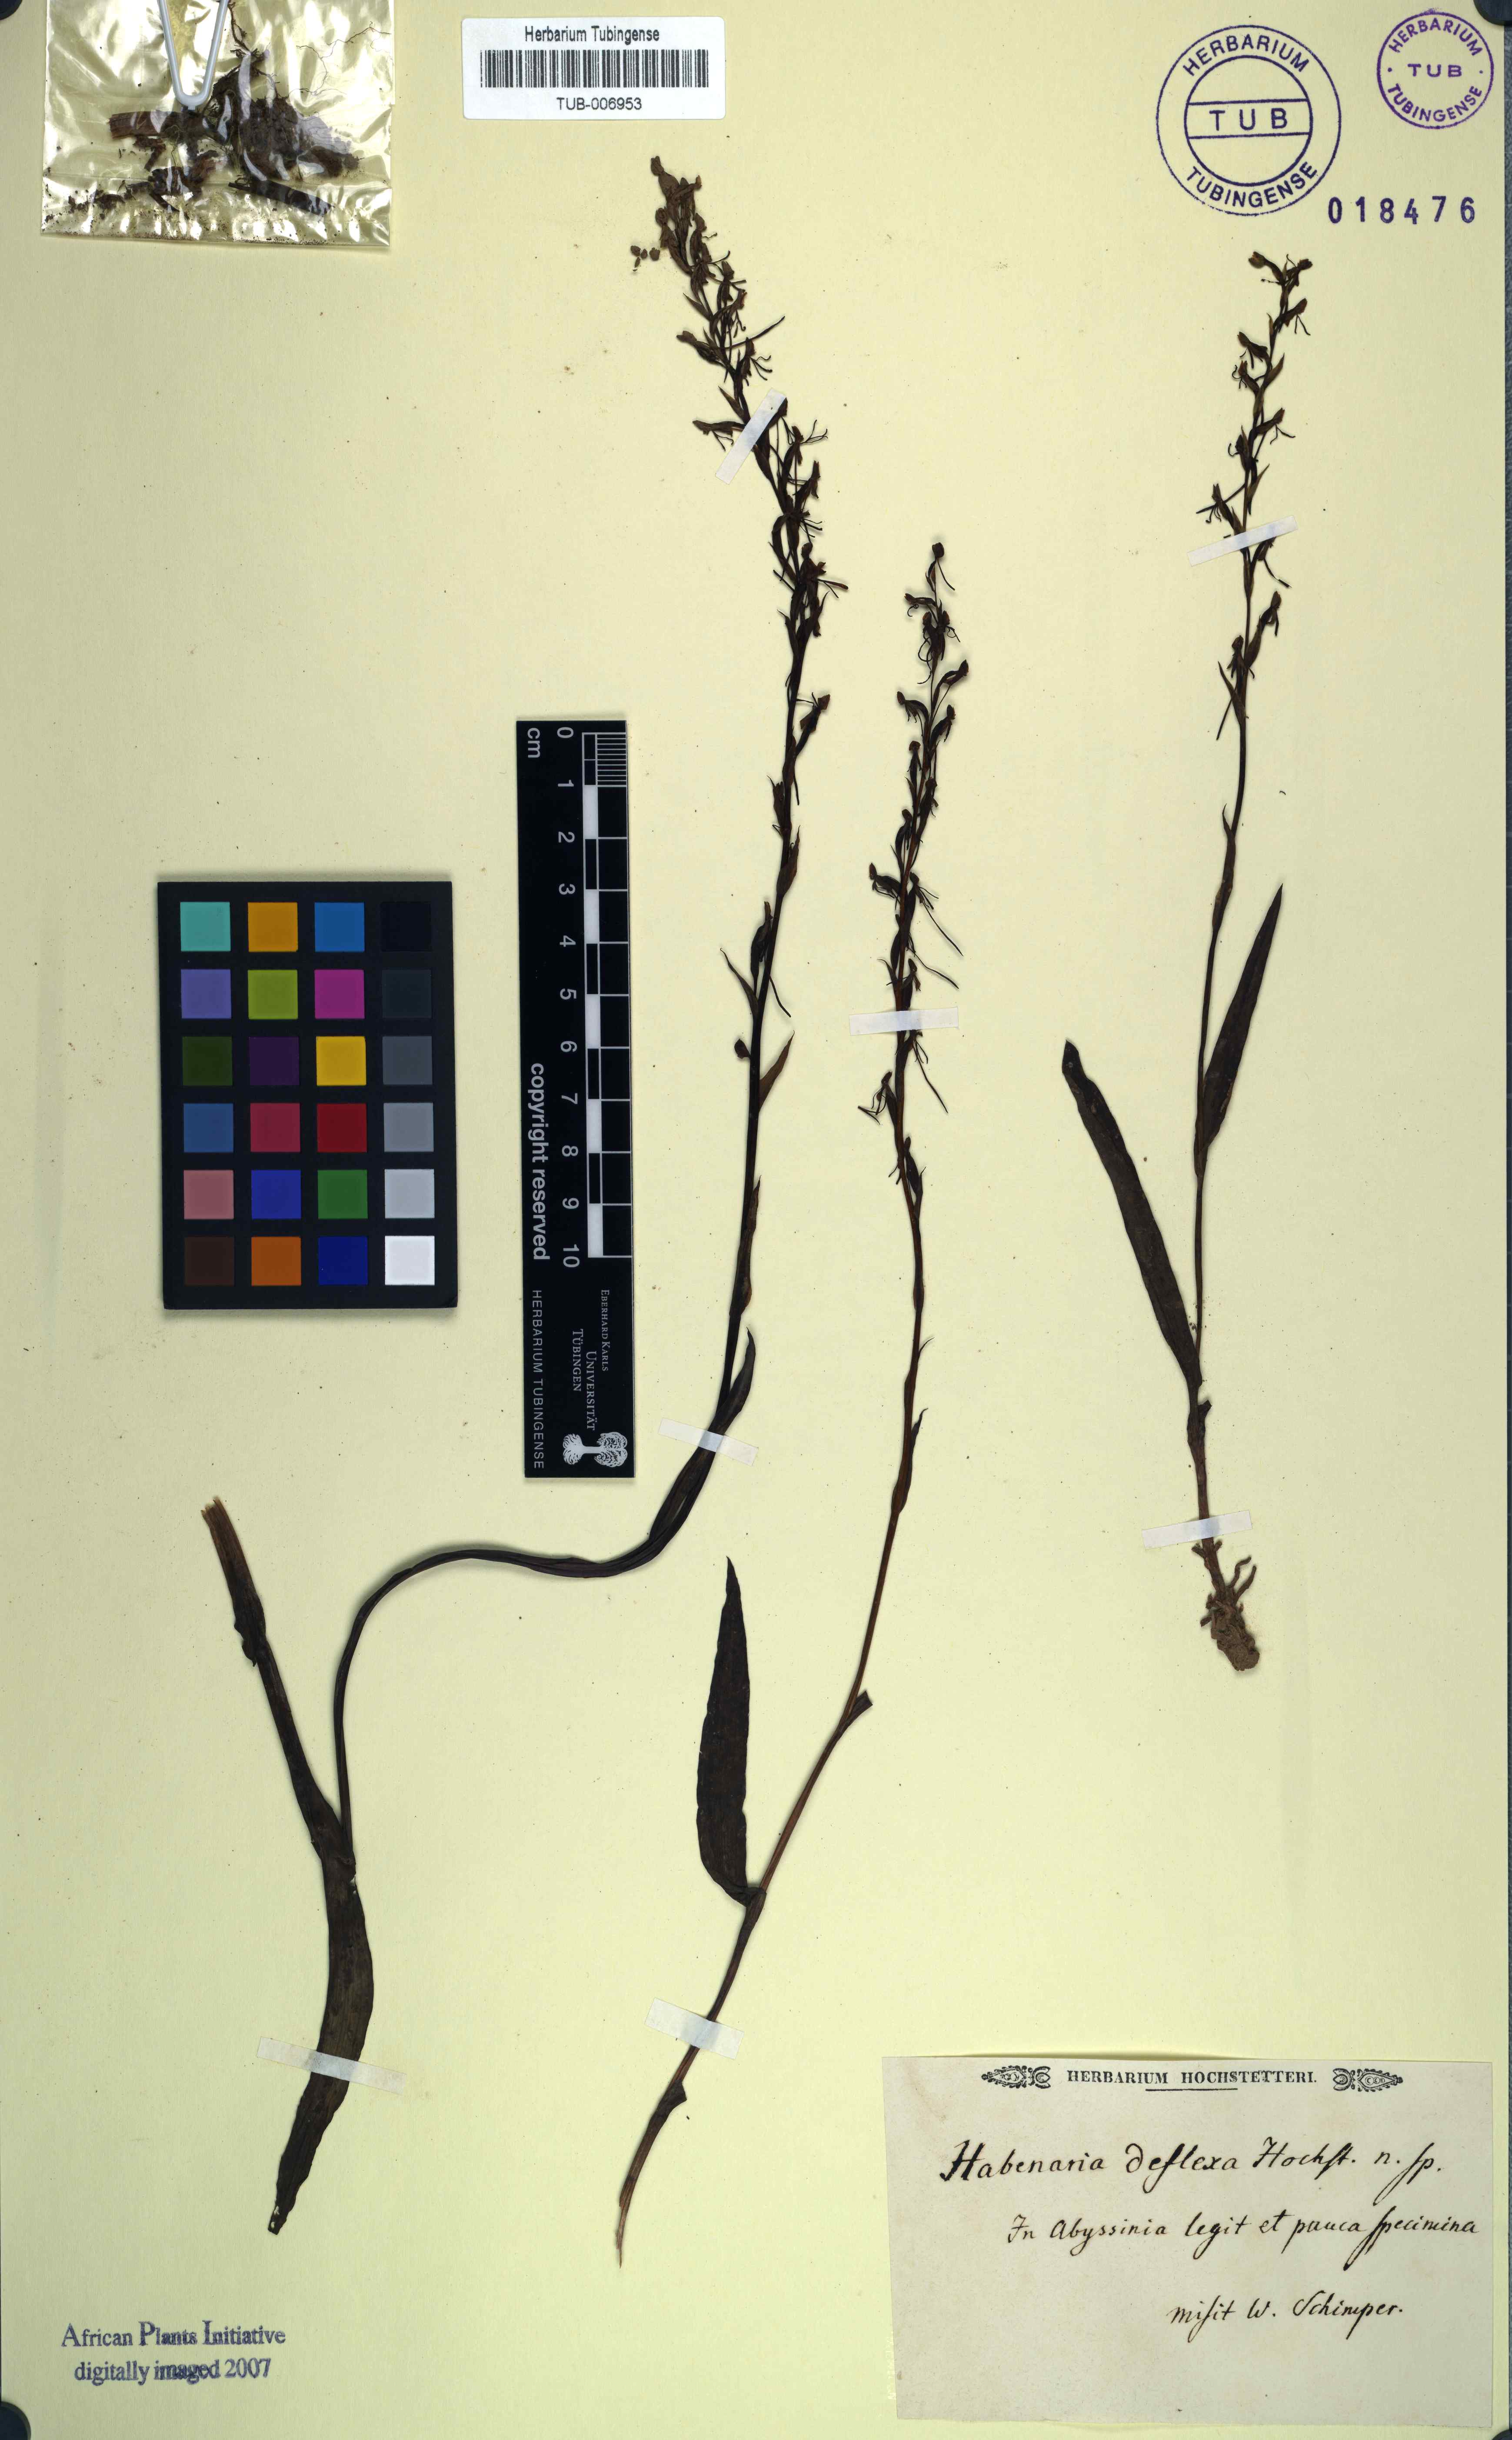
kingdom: Plantae
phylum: Tracheophyta
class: Liliopsida
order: Asparagales
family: Orchidaceae
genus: Habenaria
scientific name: Habenaria filicornis
